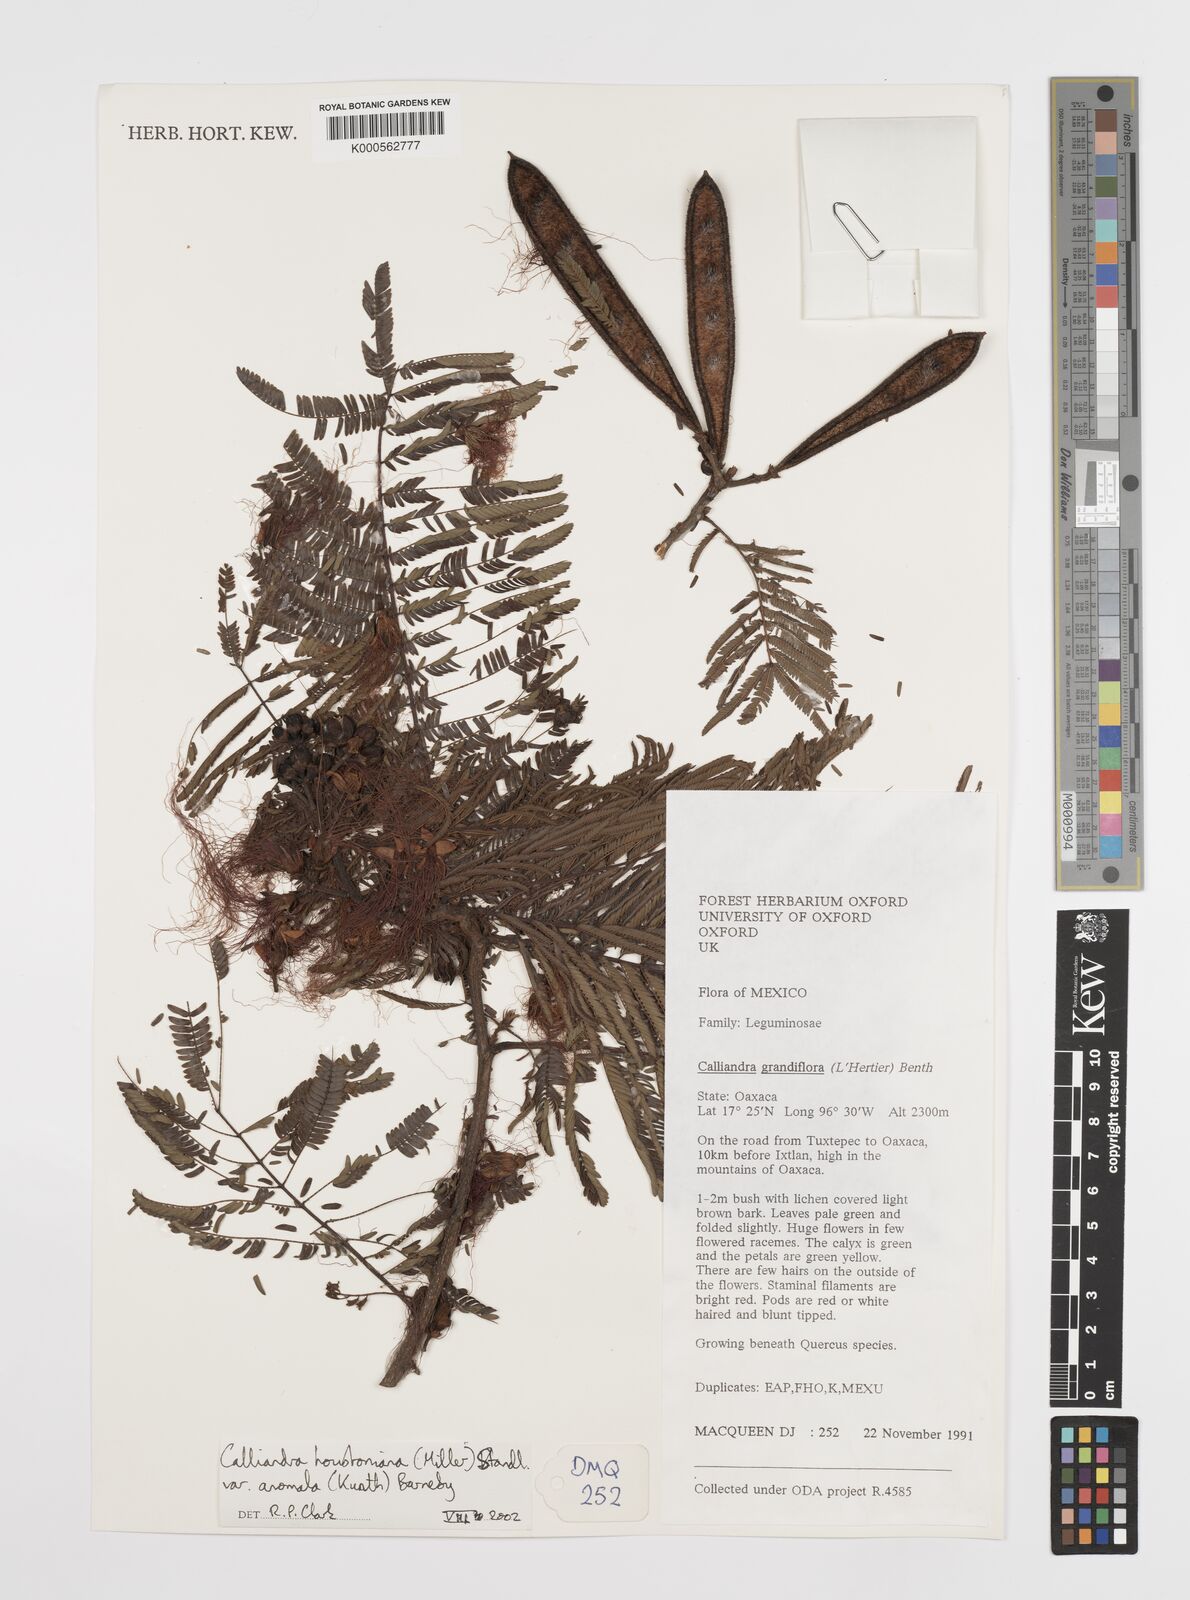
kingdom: Plantae
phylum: Tracheophyta
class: Magnoliopsida
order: Fabales
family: Fabaceae
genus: Calliandra
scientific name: Calliandra houstoniana
